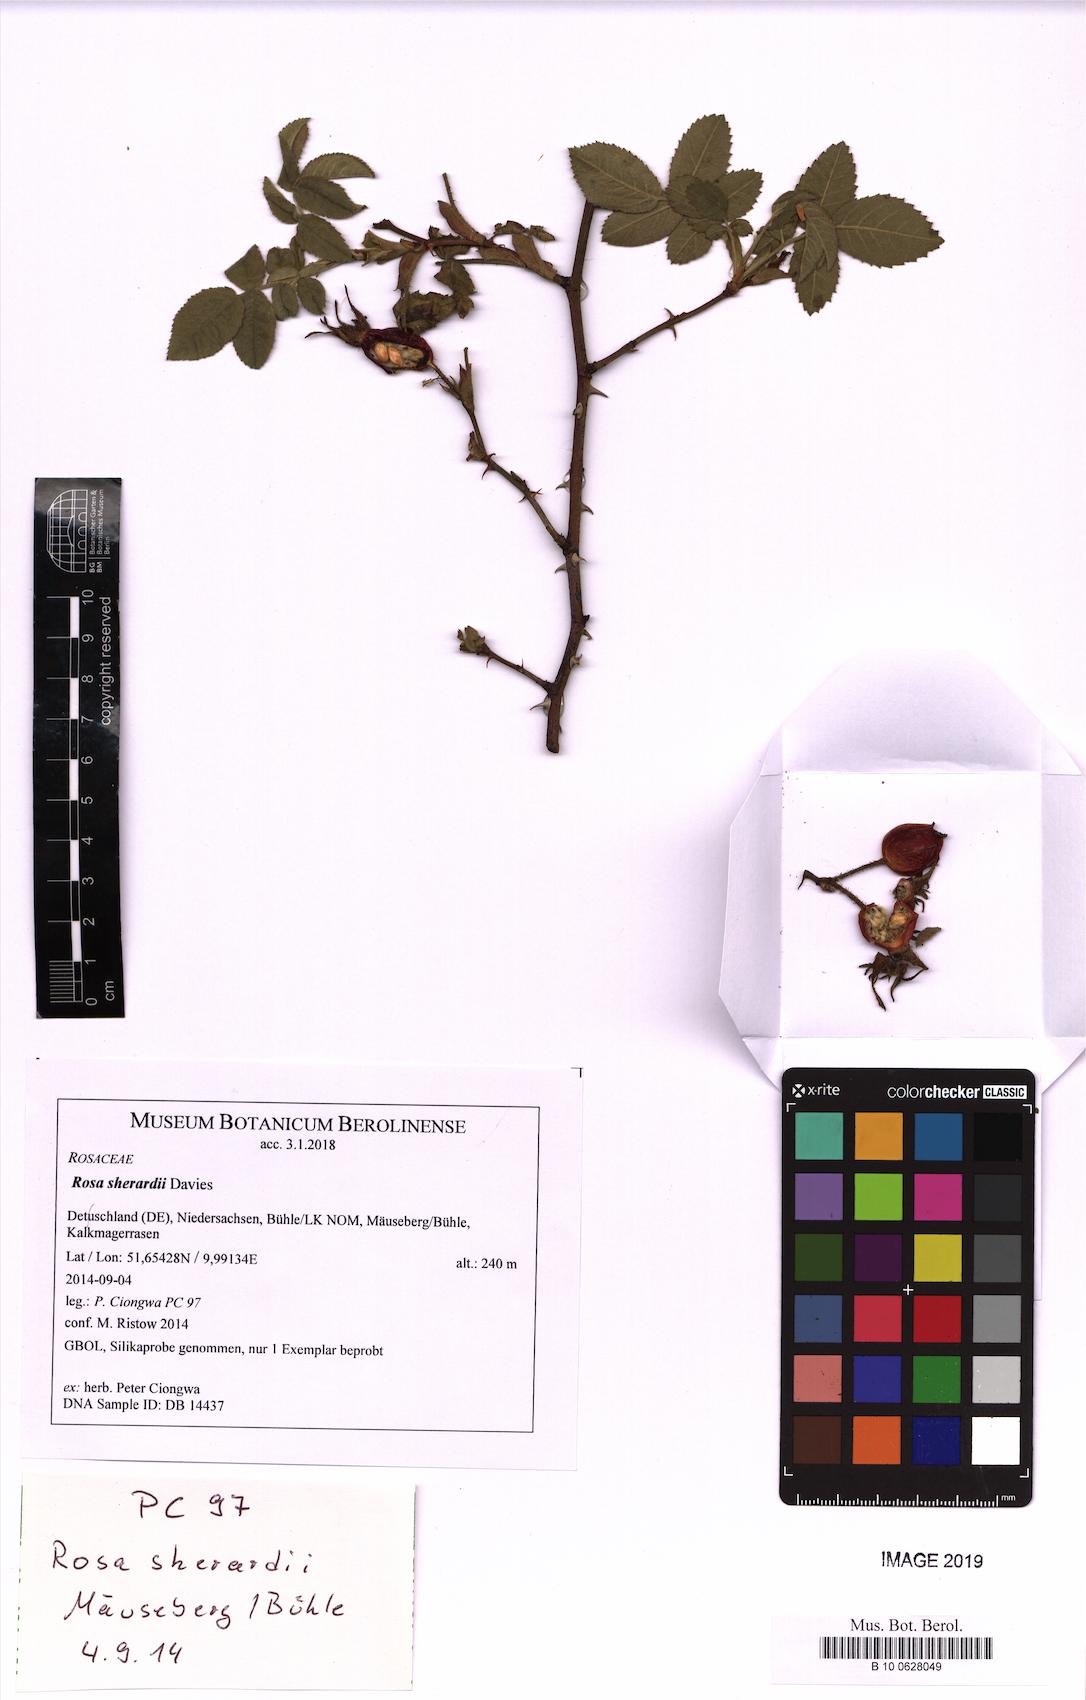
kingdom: Plantae
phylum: Tracheophyta
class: Magnoliopsida
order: Rosales
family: Rosaceae
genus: Rosa
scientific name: Rosa sherardii
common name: Sherard's downy rose
